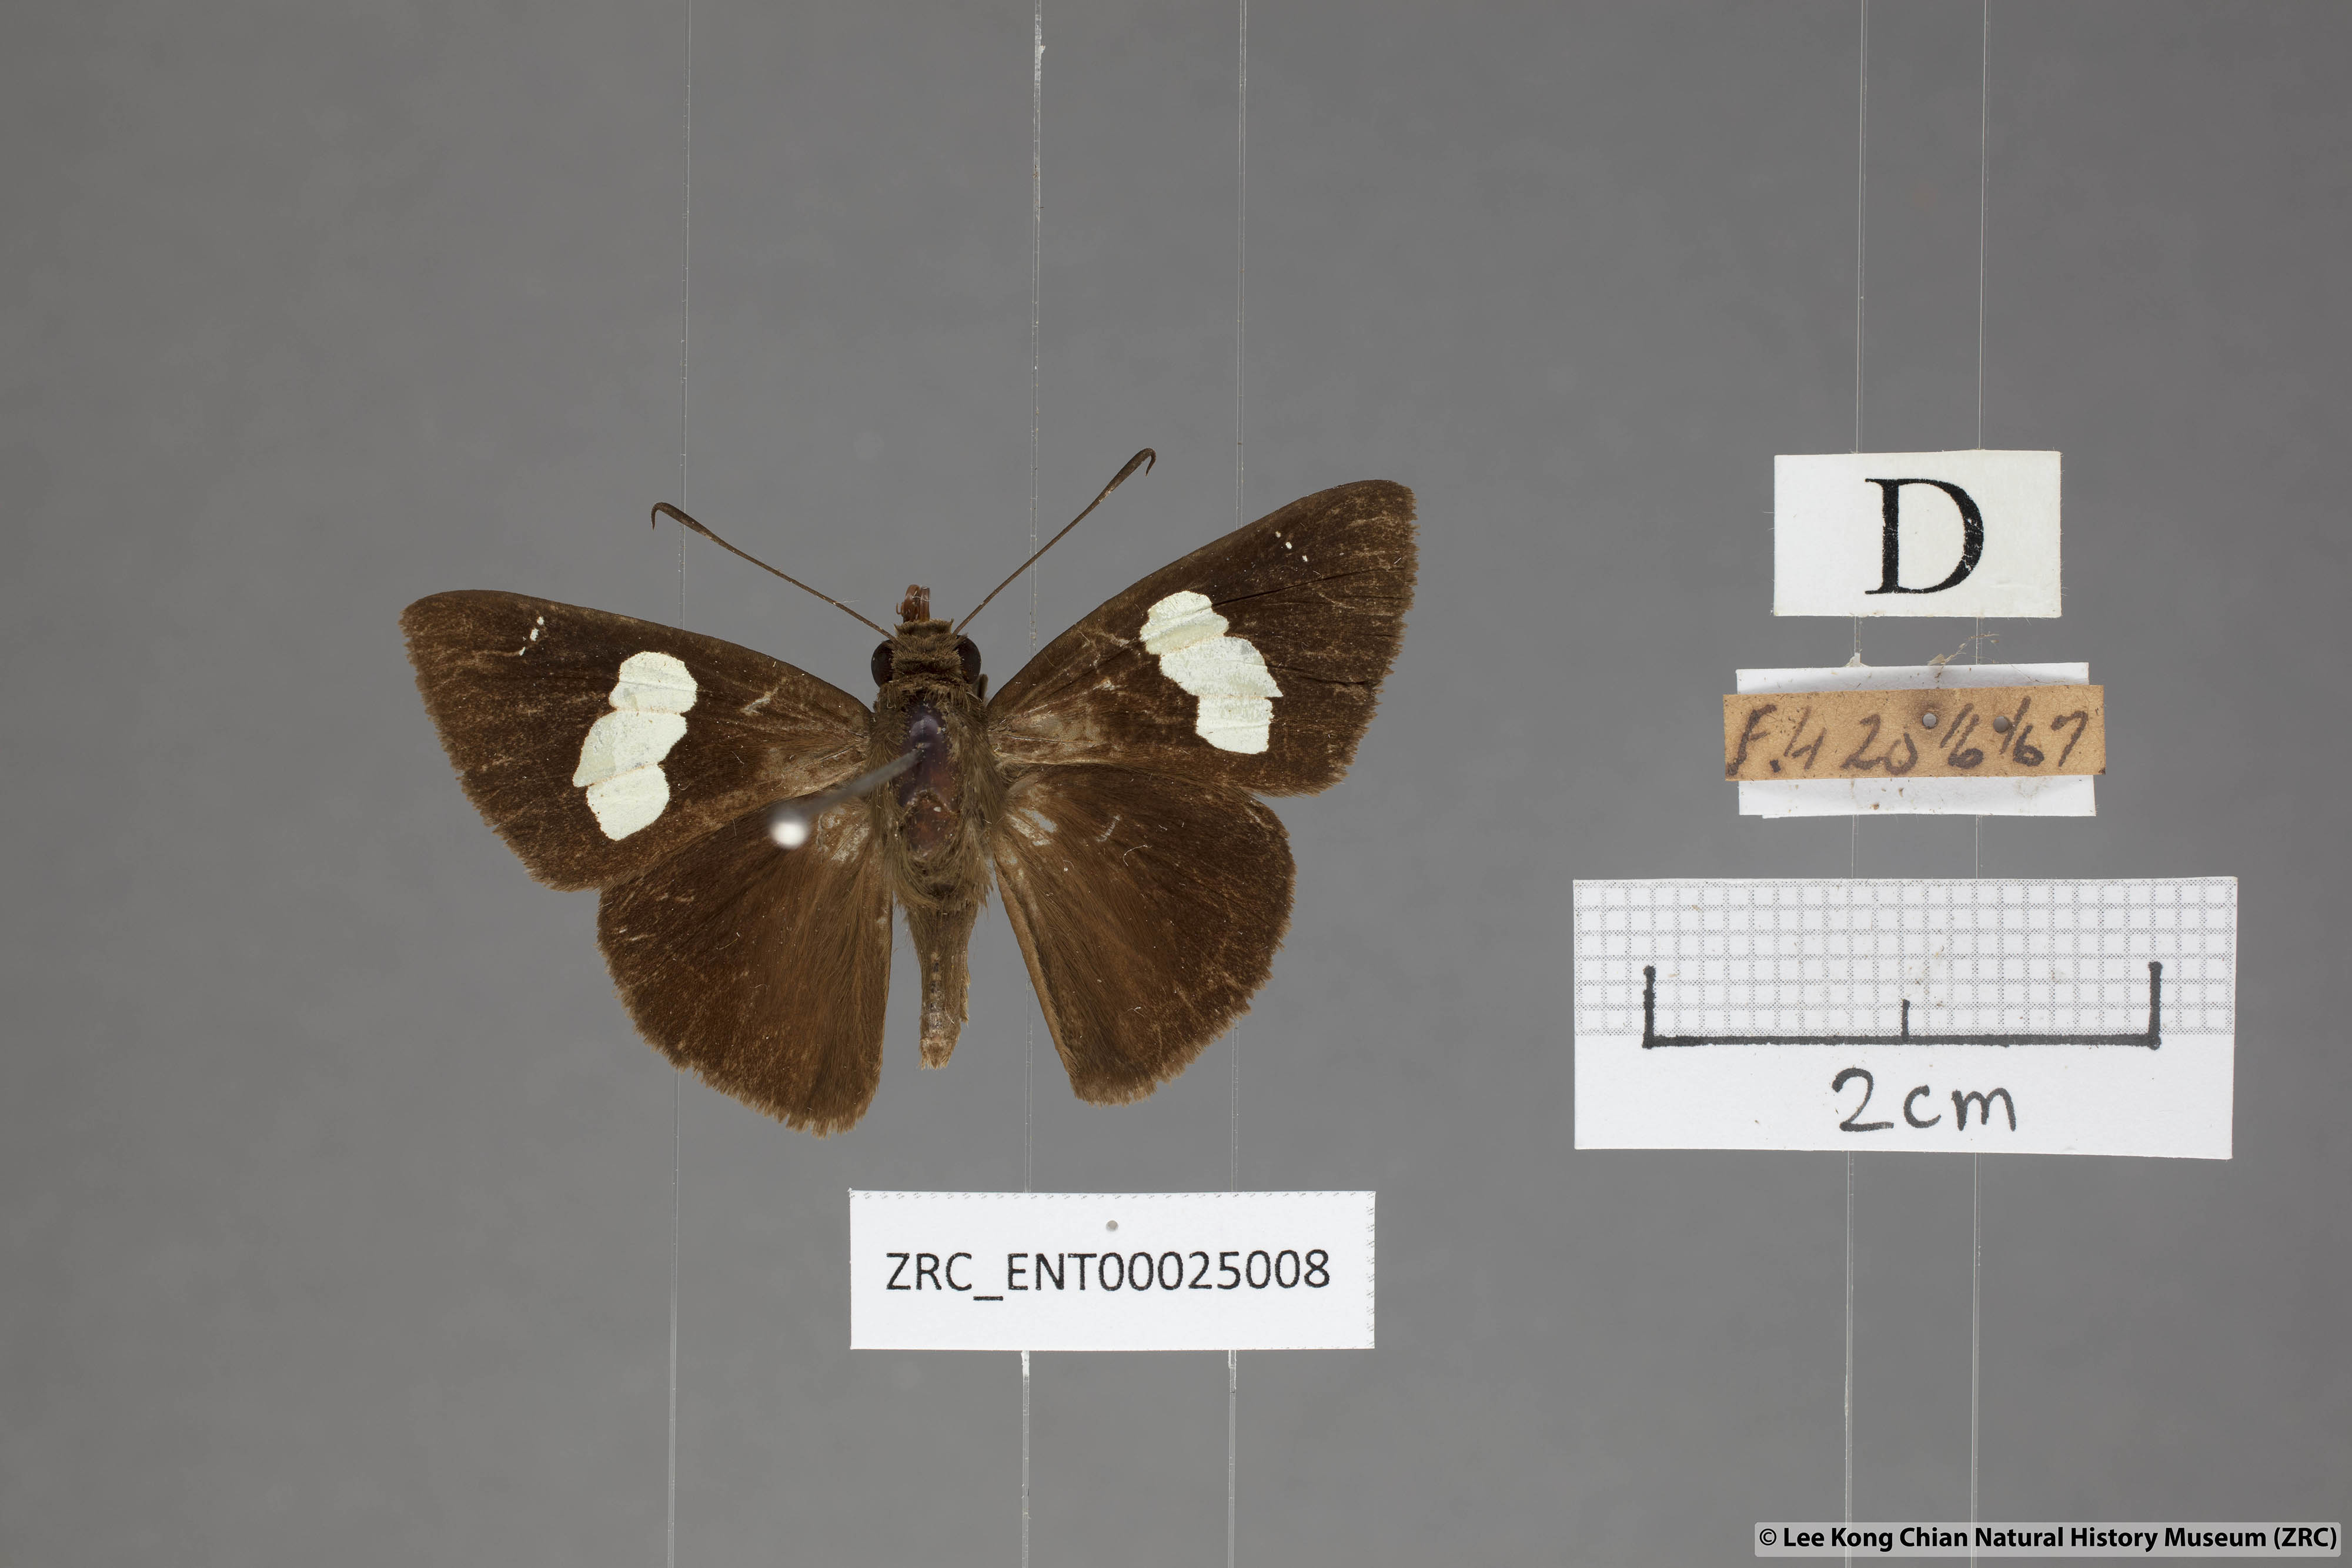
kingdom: Animalia
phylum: Arthropoda
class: Insecta
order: Lepidoptera
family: Hesperiidae
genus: Notocrypta
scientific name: Notocrypta curvifascia
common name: Restricted demon
